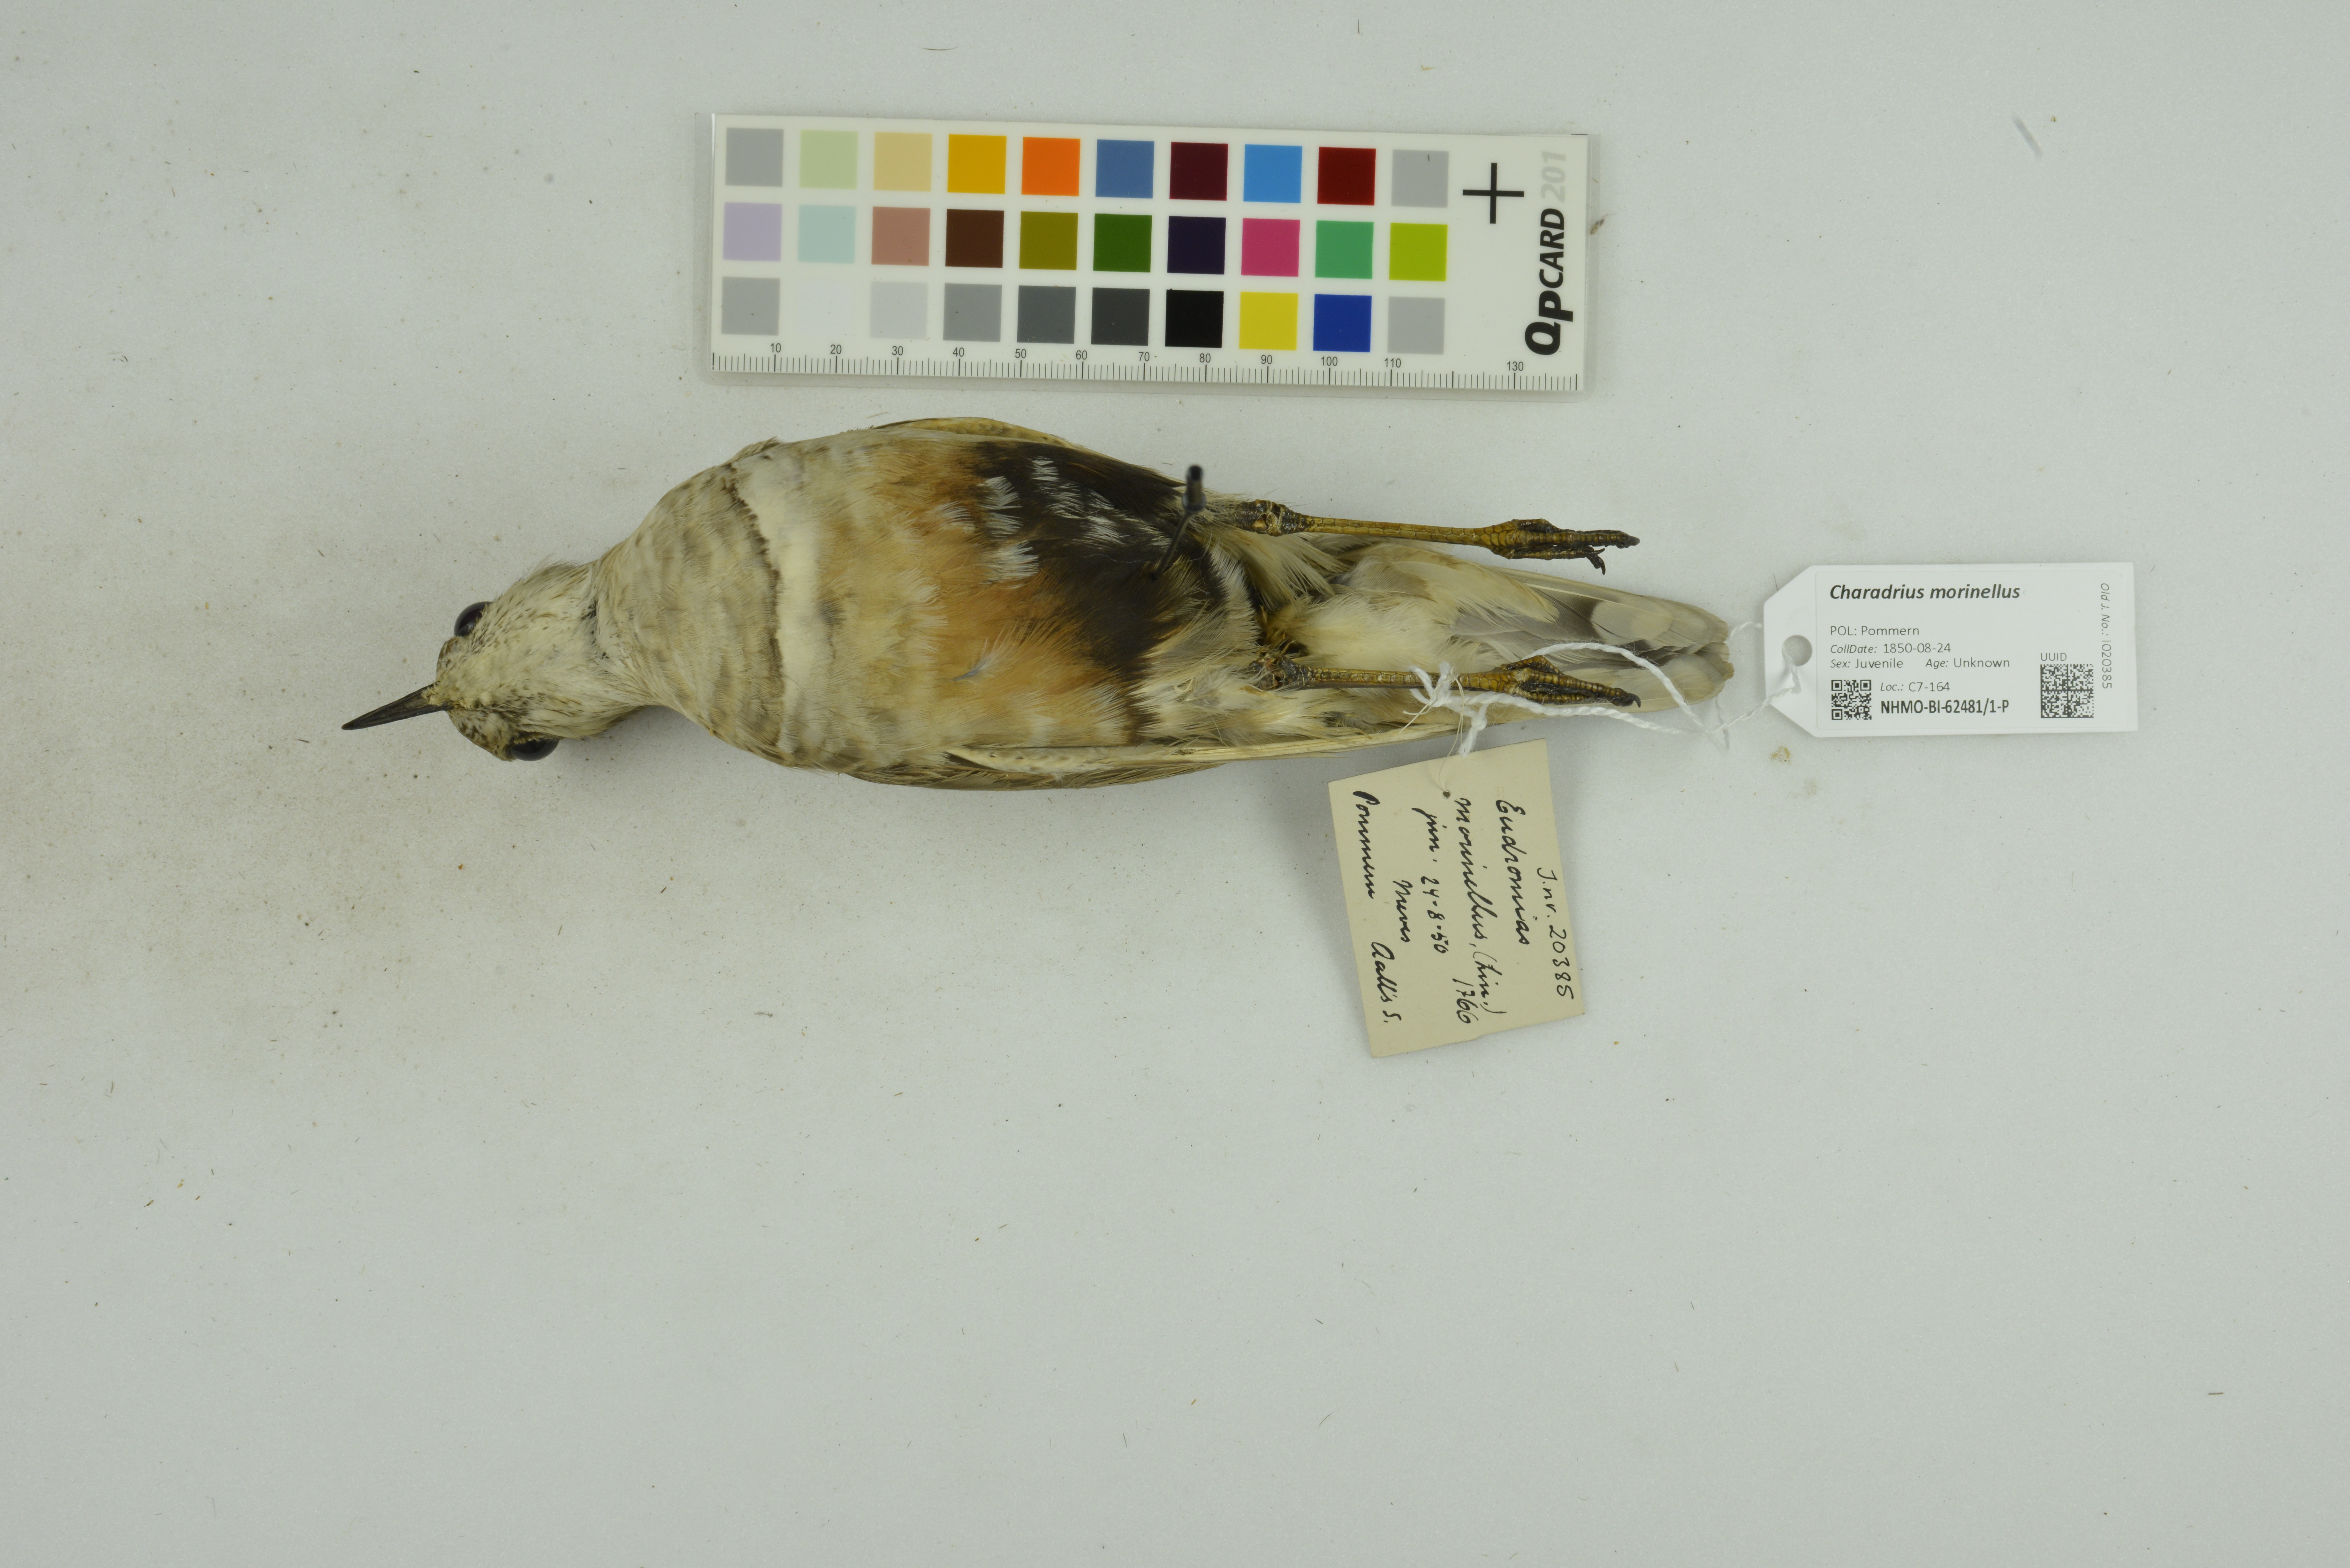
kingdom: Animalia
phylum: Chordata
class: Aves
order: Charadriiformes
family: Charadriidae
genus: Charadrius
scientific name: Charadrius morinellus
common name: Eurasian dotterel
